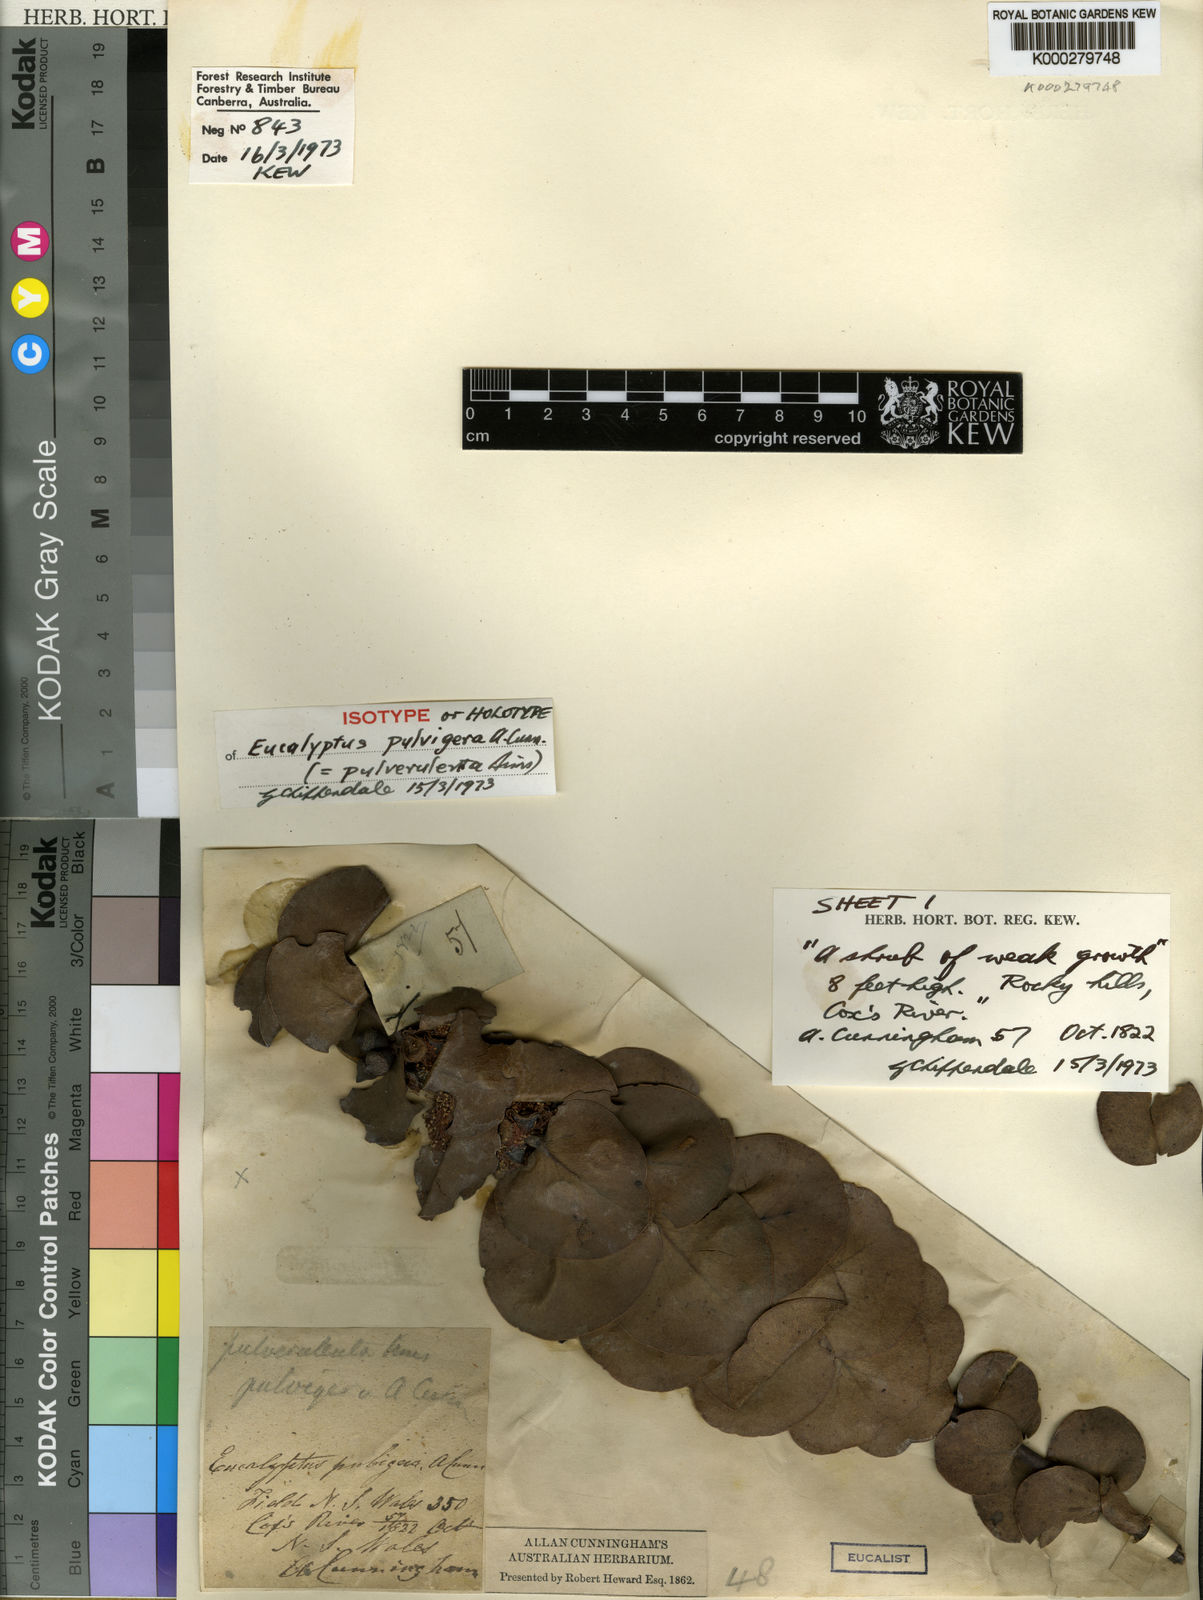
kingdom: Plantae
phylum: Tracheophyta
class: Magnoliopsida
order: Myrtales
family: Myrtaceae
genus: Eucalyptus
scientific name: Eucalyptus pulverulenta
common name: Silverleaf mountain gum
